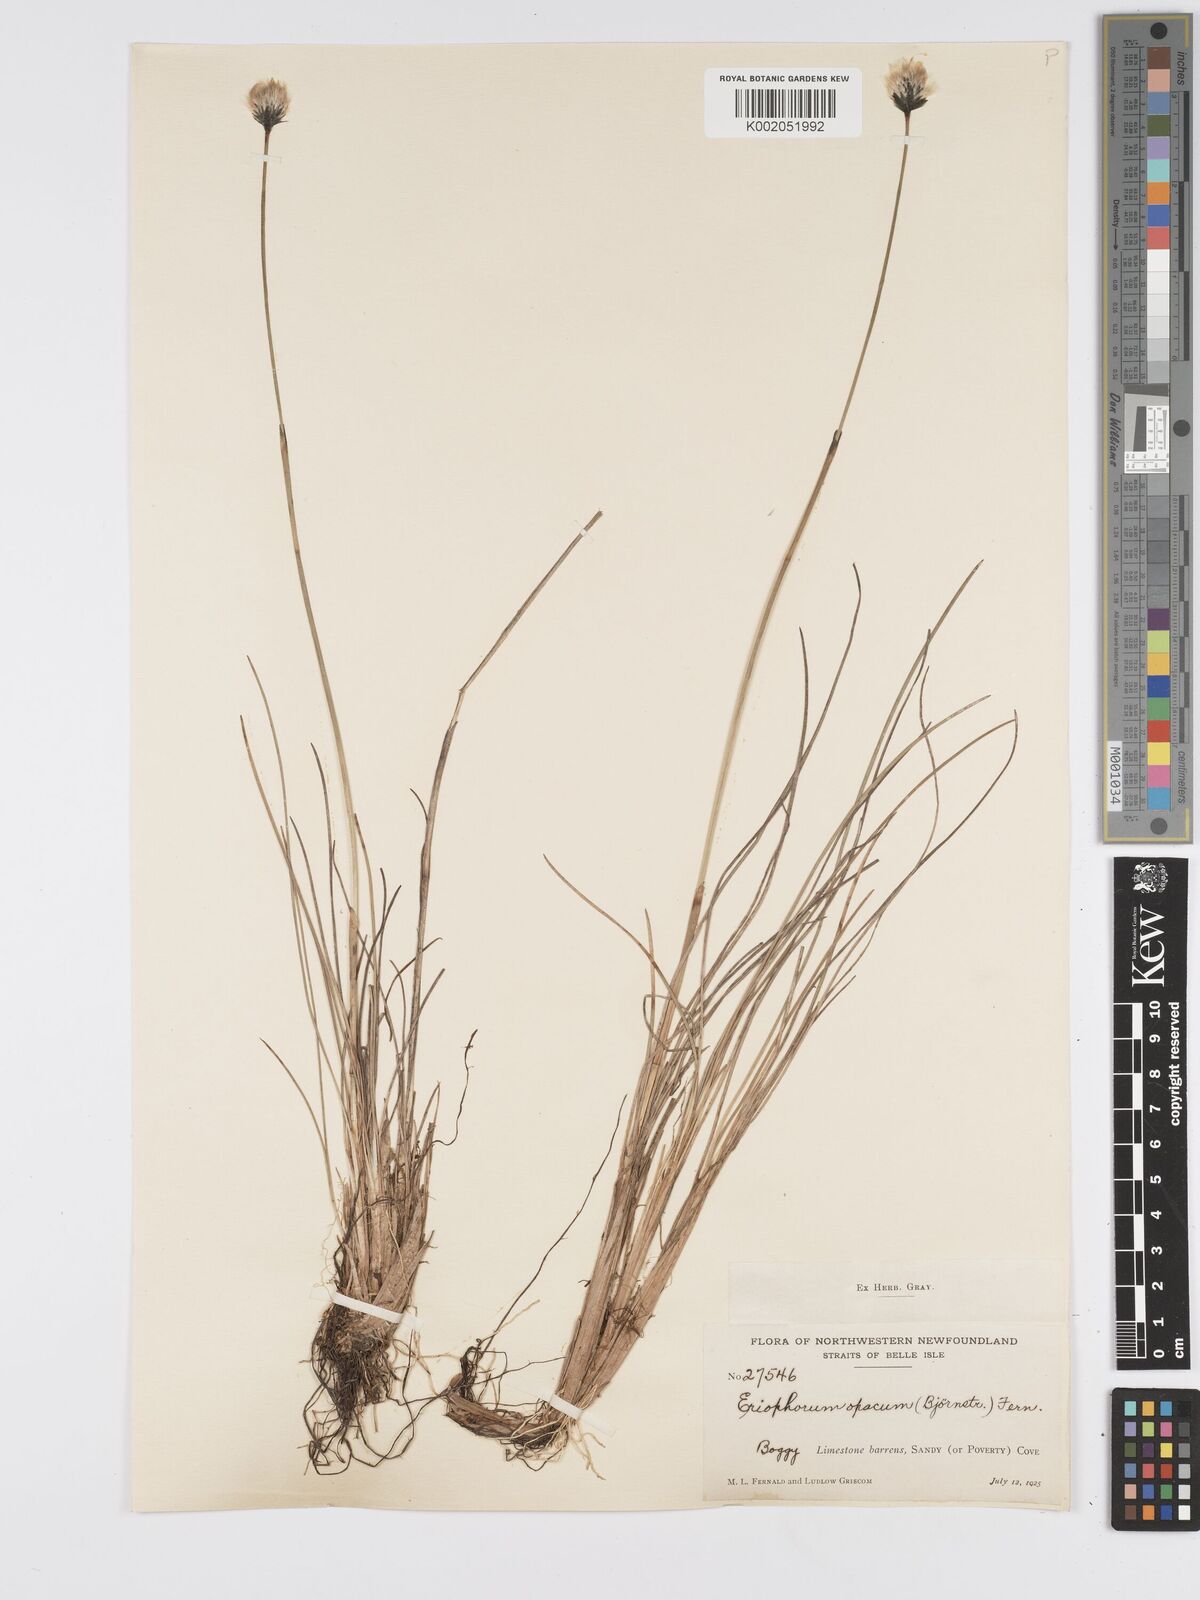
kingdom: Plantae
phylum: Tracheophyta
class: Liliopsida
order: Poales
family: Cyperaceae
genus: Eriophorum
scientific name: Eriophorum brachyantherum
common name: Closed-sheathed cottongrass
